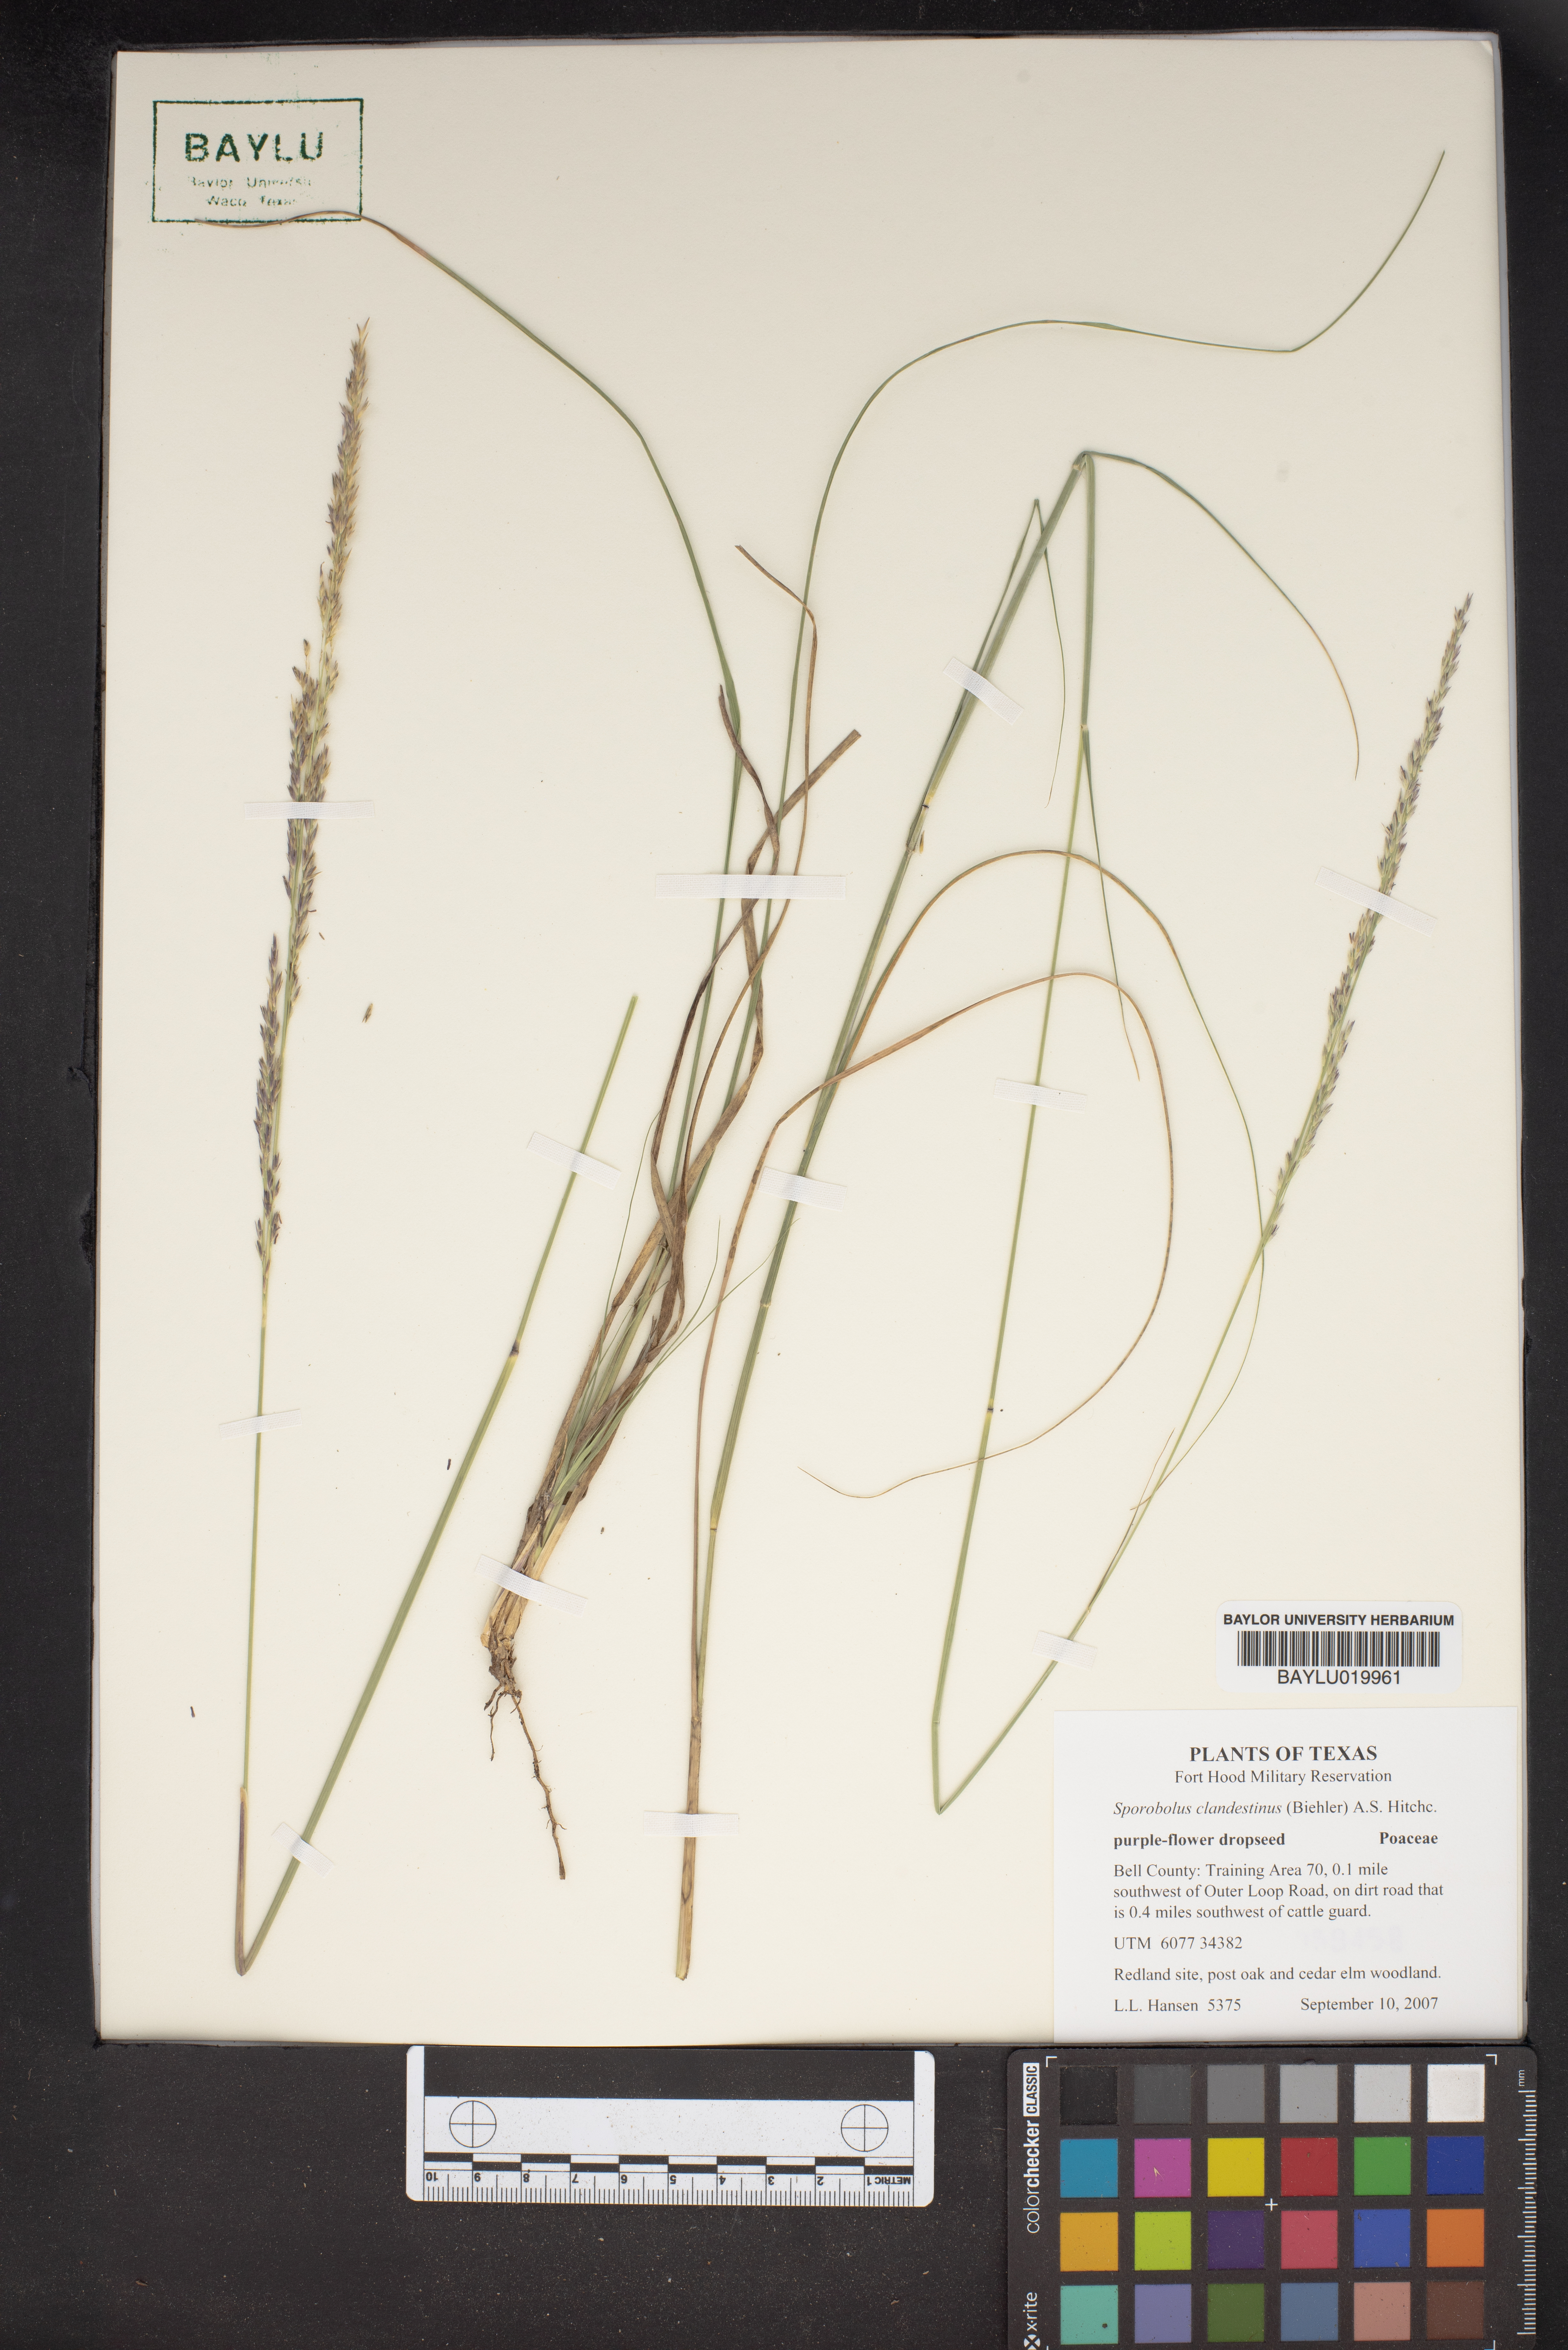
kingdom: Plantae
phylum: Tracheophyta
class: Liliopsida
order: Poales
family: Poaceae
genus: Sporobolus
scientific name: Sporobolus clandestinus
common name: Hidden dropseed
